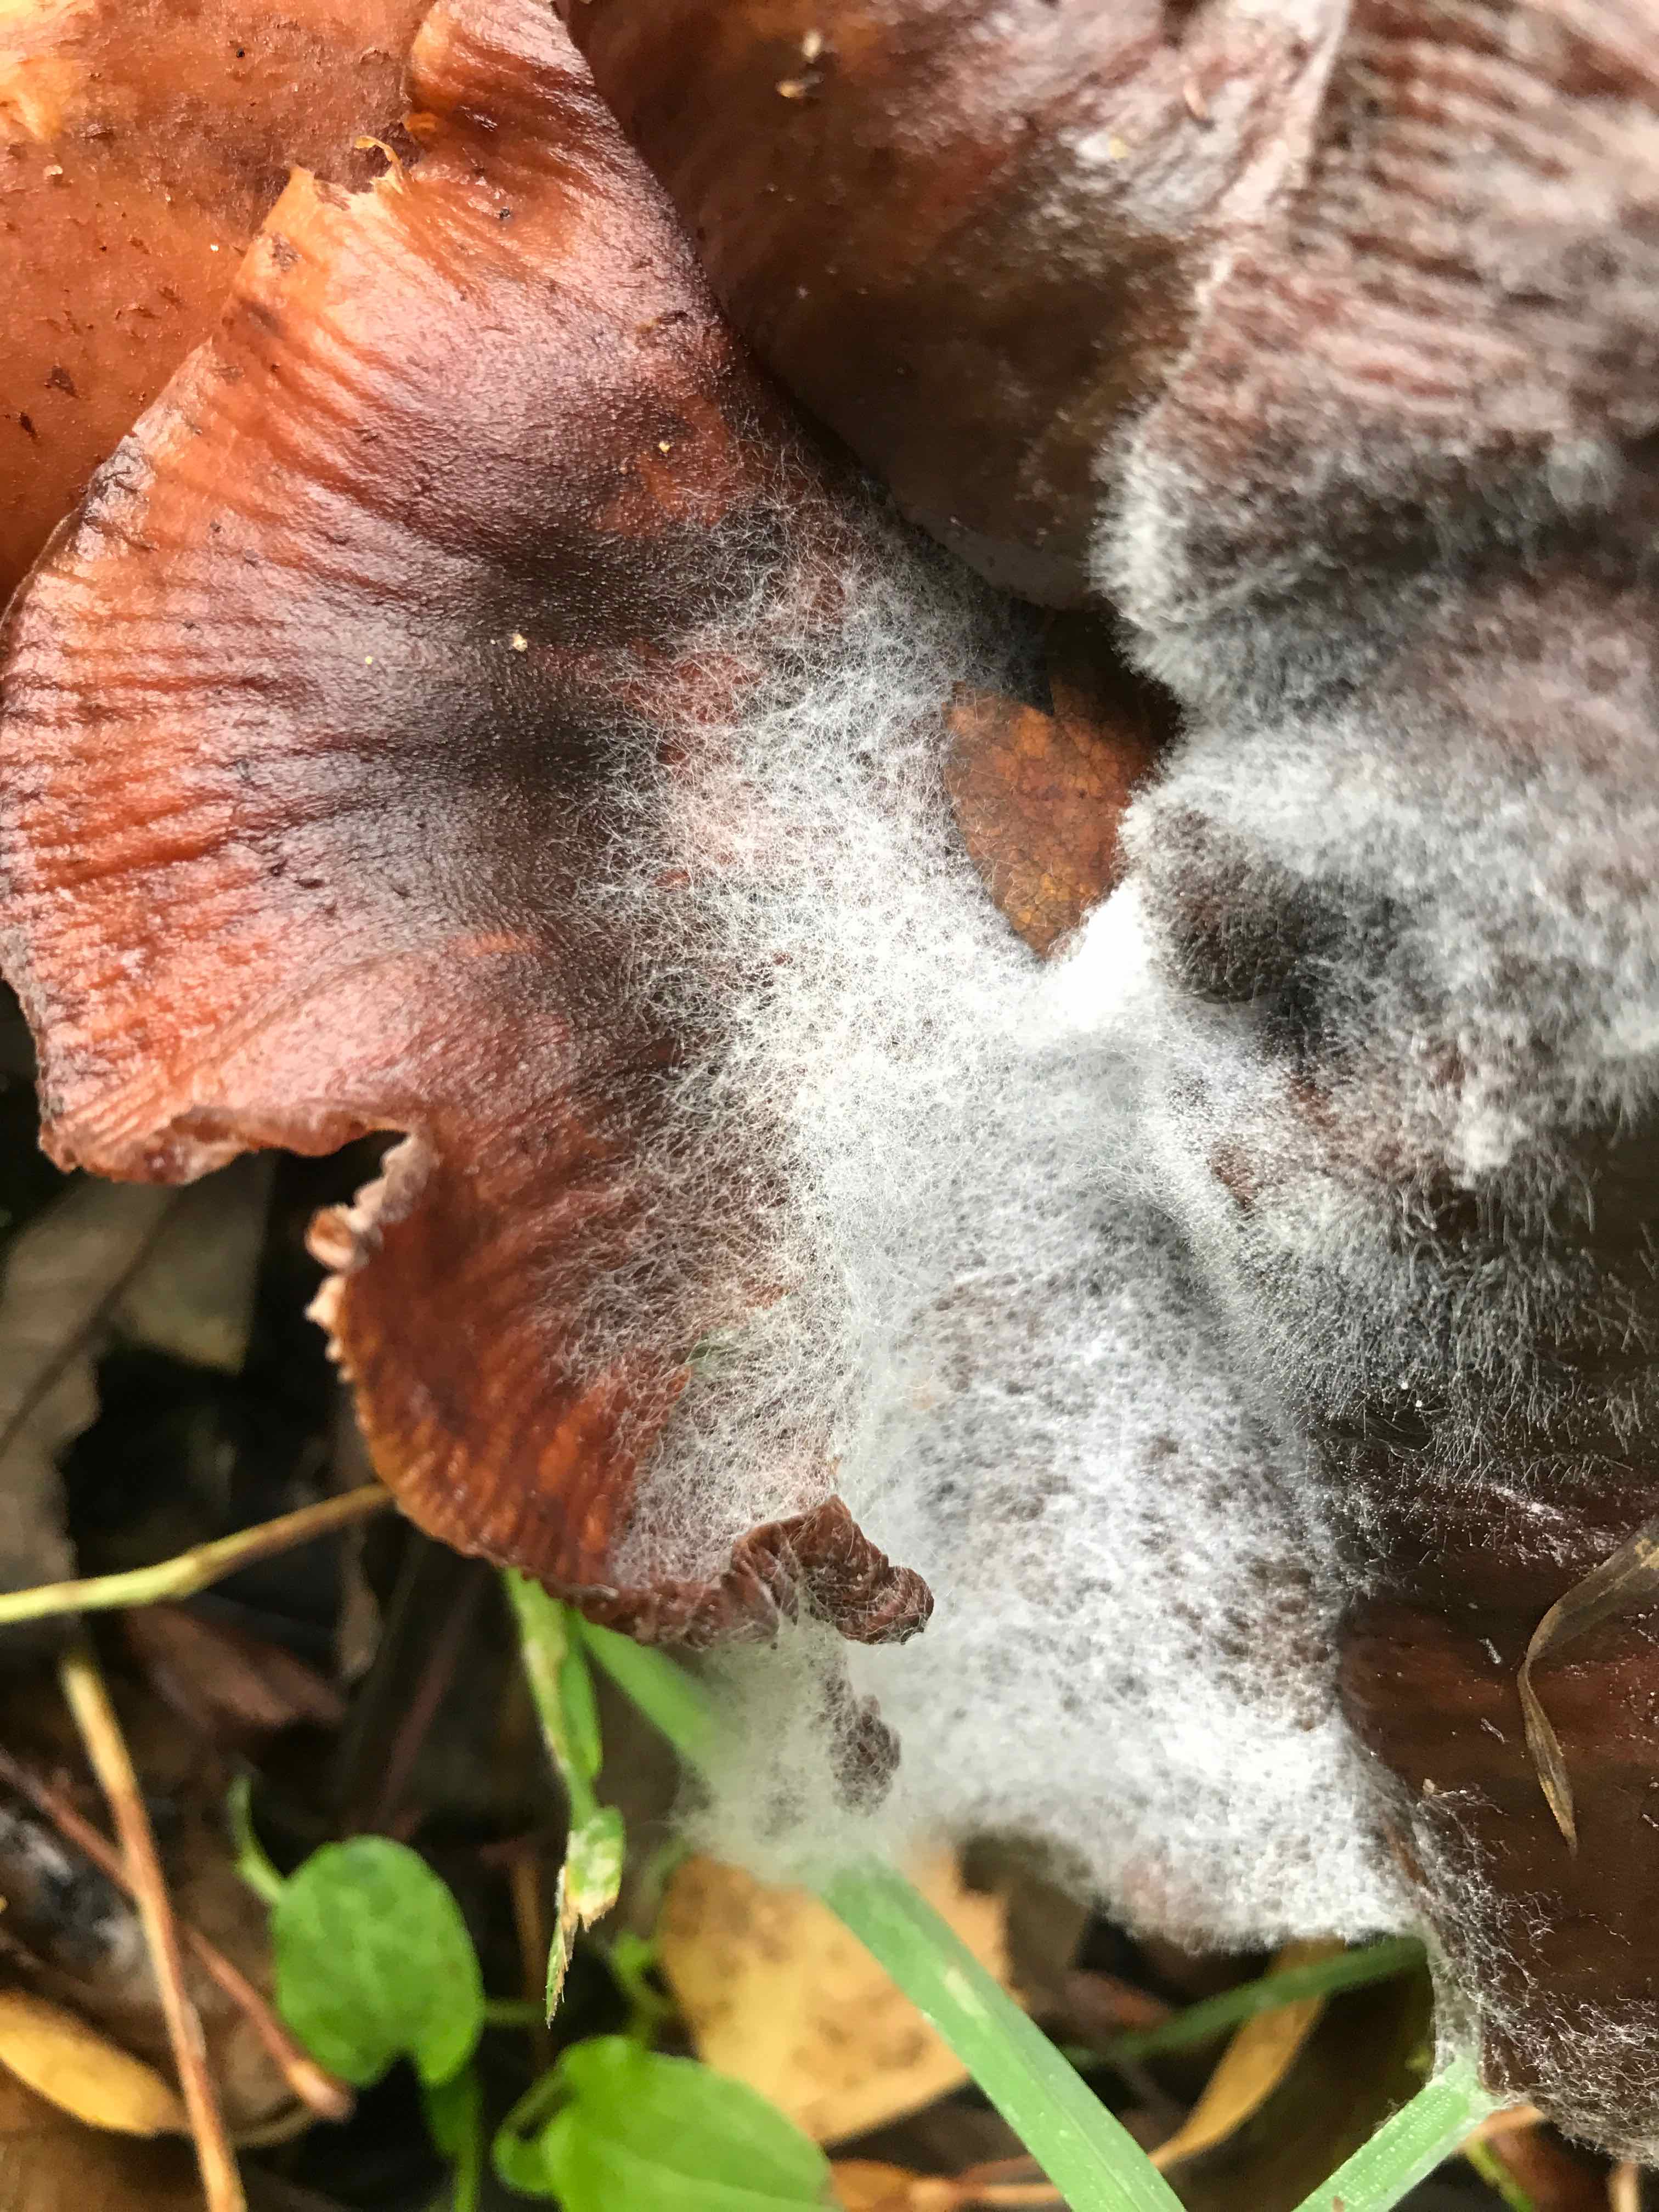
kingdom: Fungi
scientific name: Fungi
